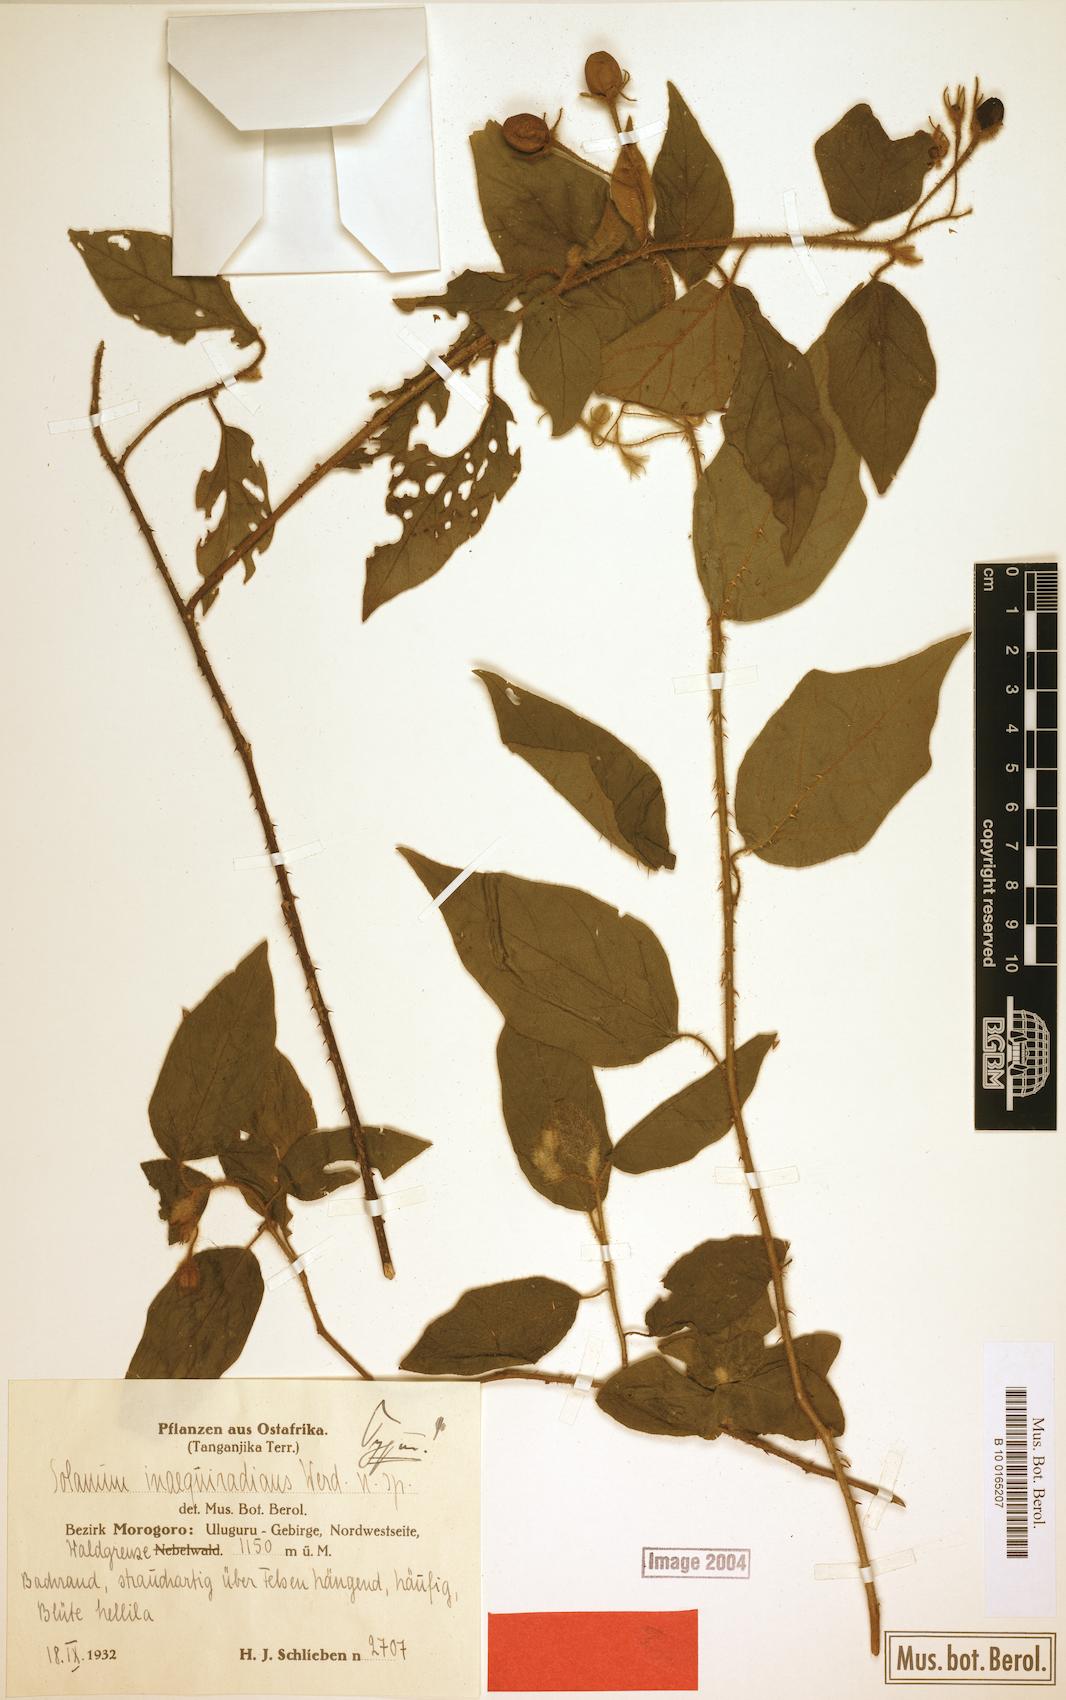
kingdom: Plantae
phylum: Tracheophyta
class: Magnoliopsida
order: Solanales
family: Solanaceae
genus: Solanum
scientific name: Solanum inaequiradians
